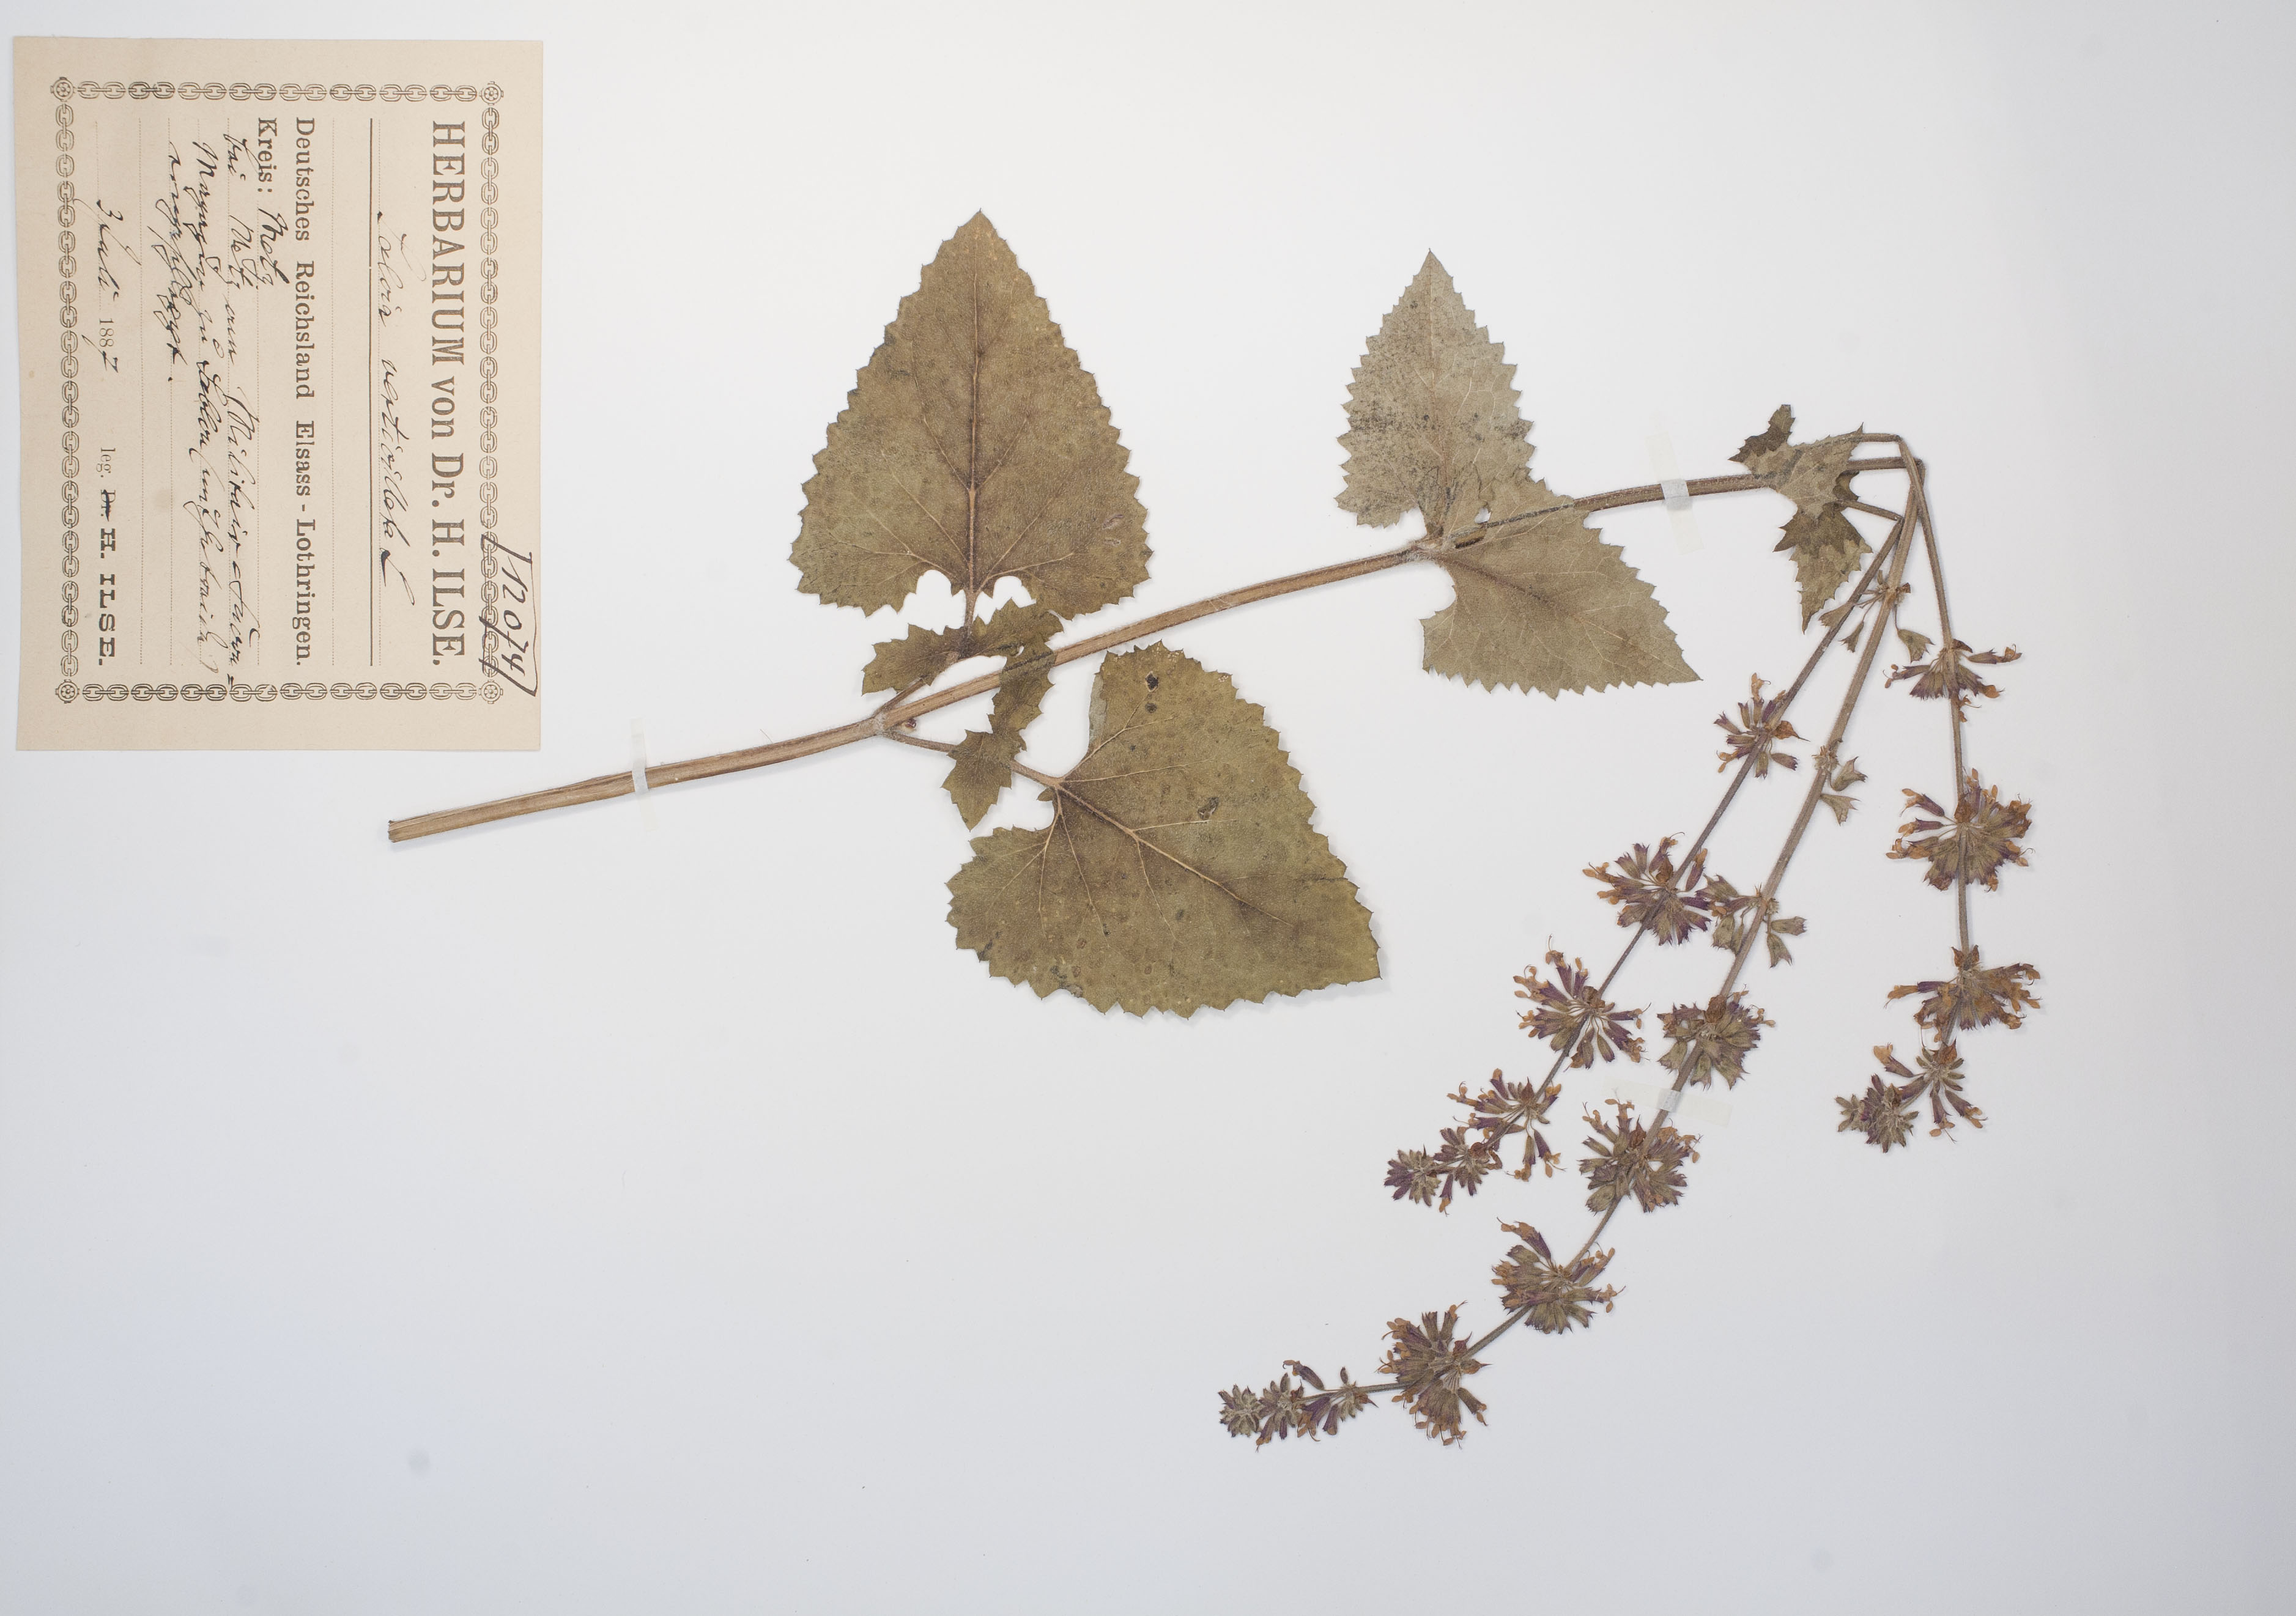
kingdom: Plantae
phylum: Tracheophyta
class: Magnoliopsida
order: Lamiales
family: Lamiaceae
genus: Salvia
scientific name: Salvia verticillata
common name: Whorled clary
